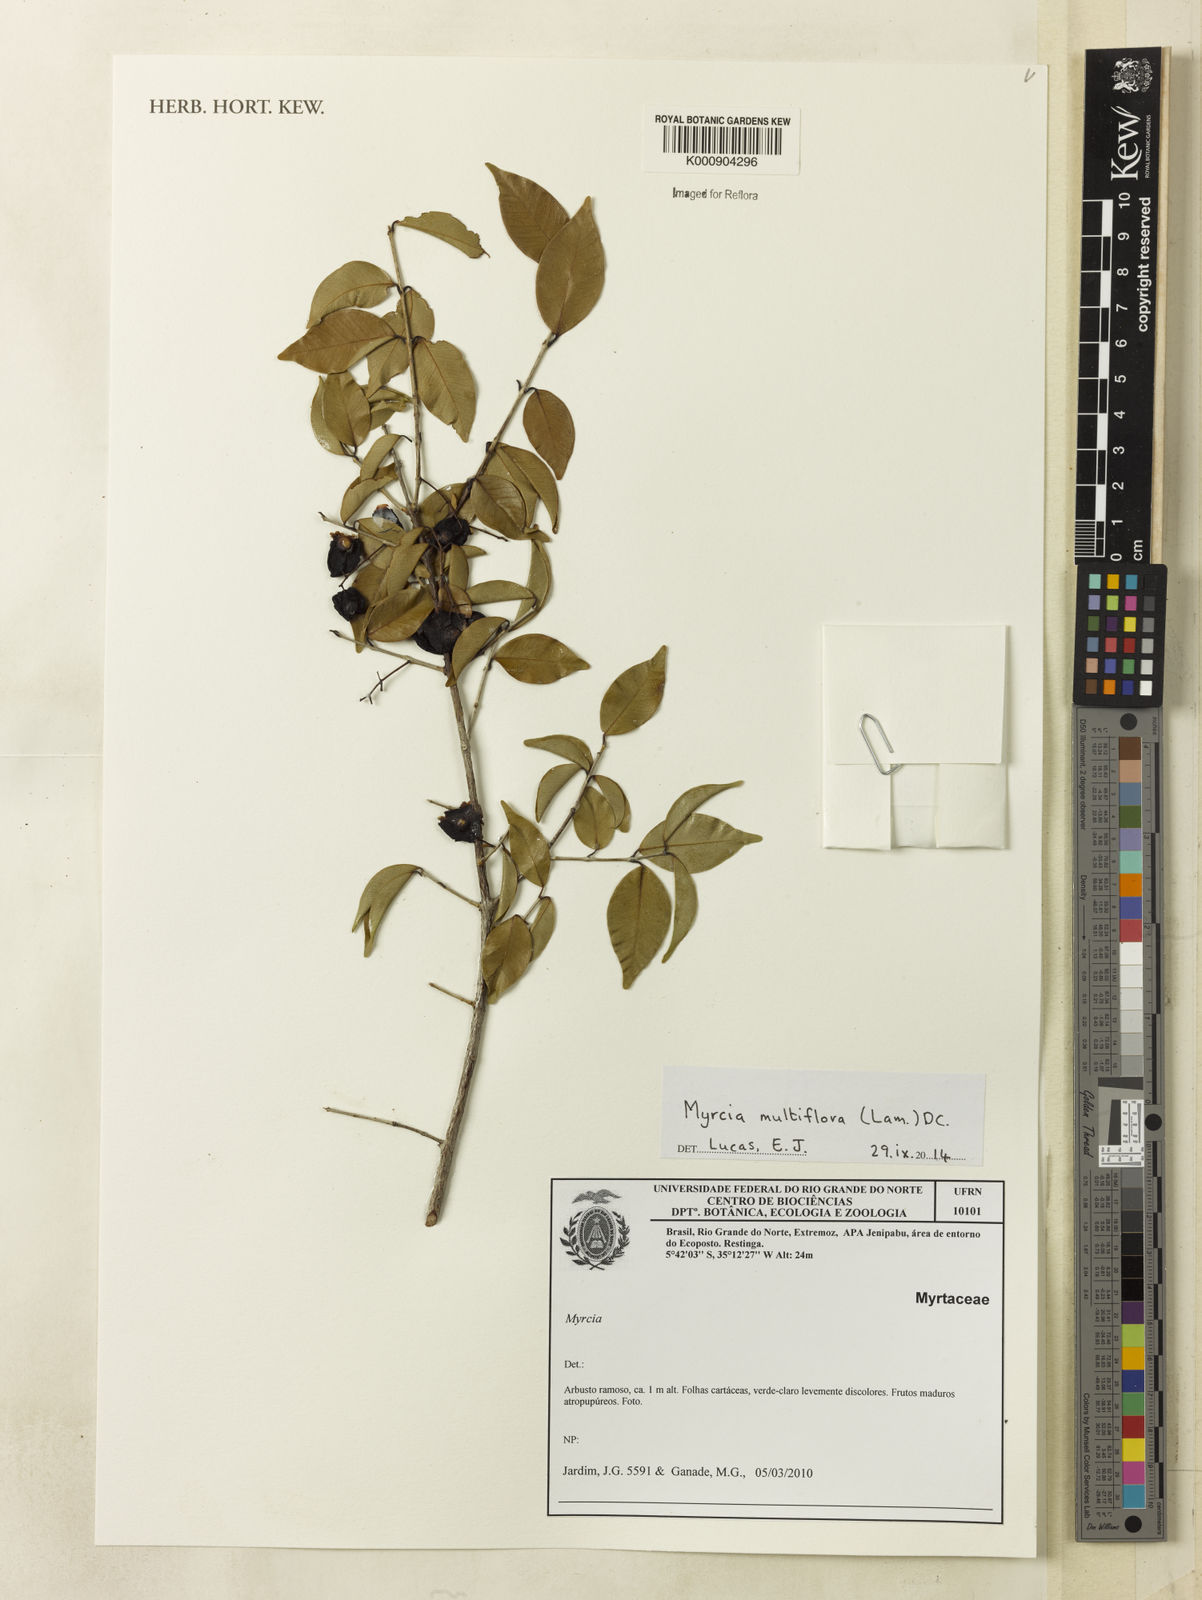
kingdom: Plantae
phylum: Tracheophyta
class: Magnoliopsida
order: Myrtales
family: Myrtaceae
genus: Myrcia
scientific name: Myrcia multiflora
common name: Pedra hume
